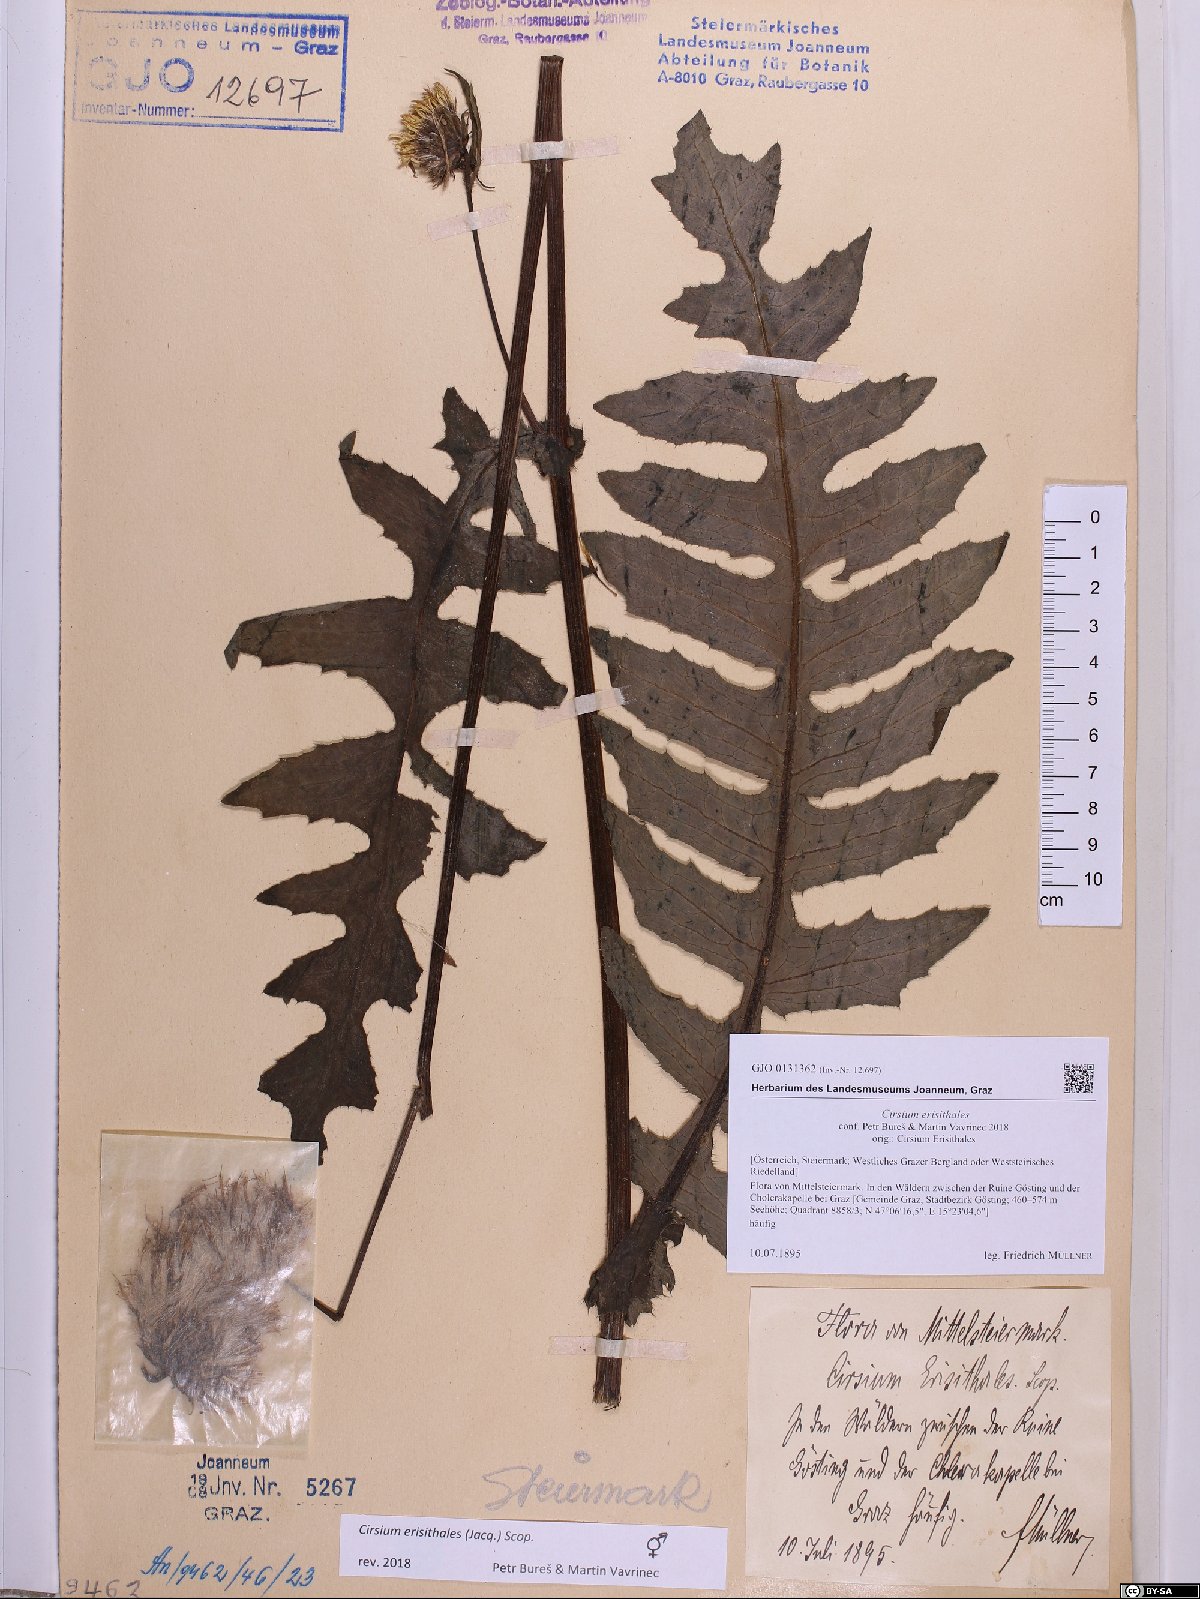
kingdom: Plantae
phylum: Tracheophyta
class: Magnoliopsida
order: Asterales
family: Asteraceae
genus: Cirsium
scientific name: Cirsium erisithales
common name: Yellow thistle
